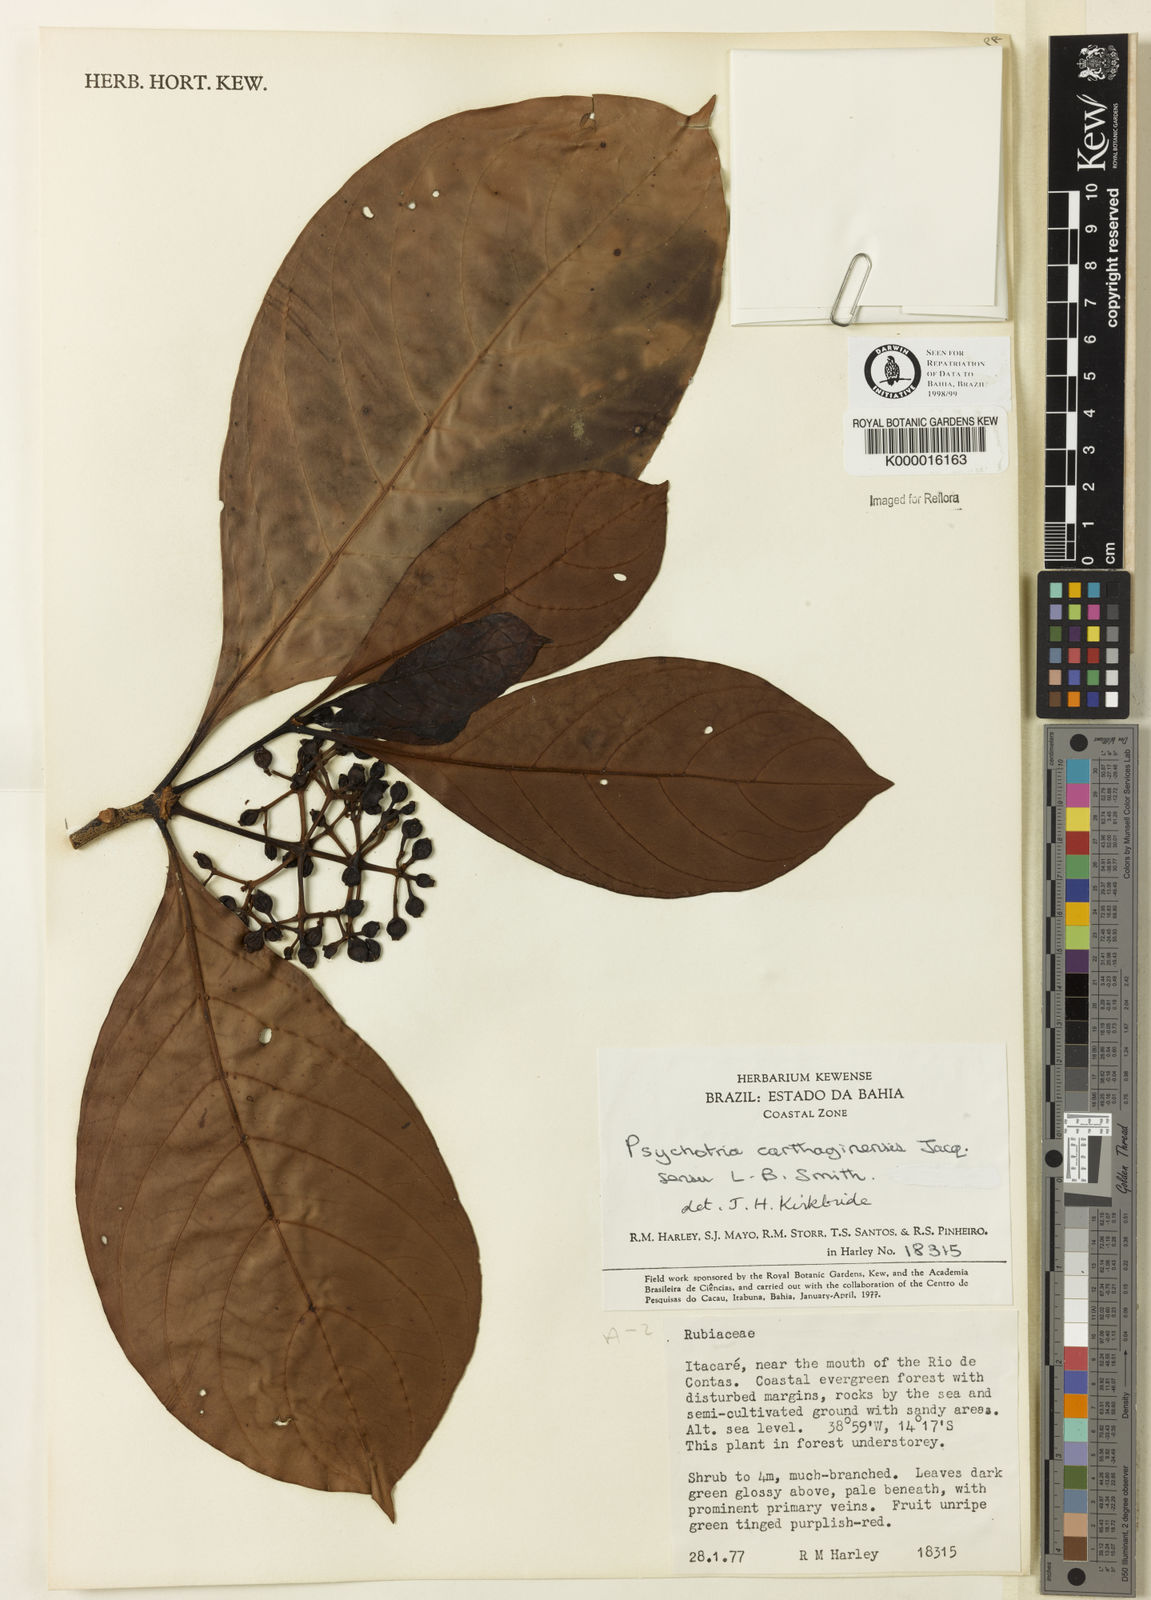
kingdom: Plantae
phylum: Tracheophyta
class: Magnoliopsida
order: Gentianales
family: Rubiaceae
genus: Psychotria
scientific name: Psychotria carthagenensis
